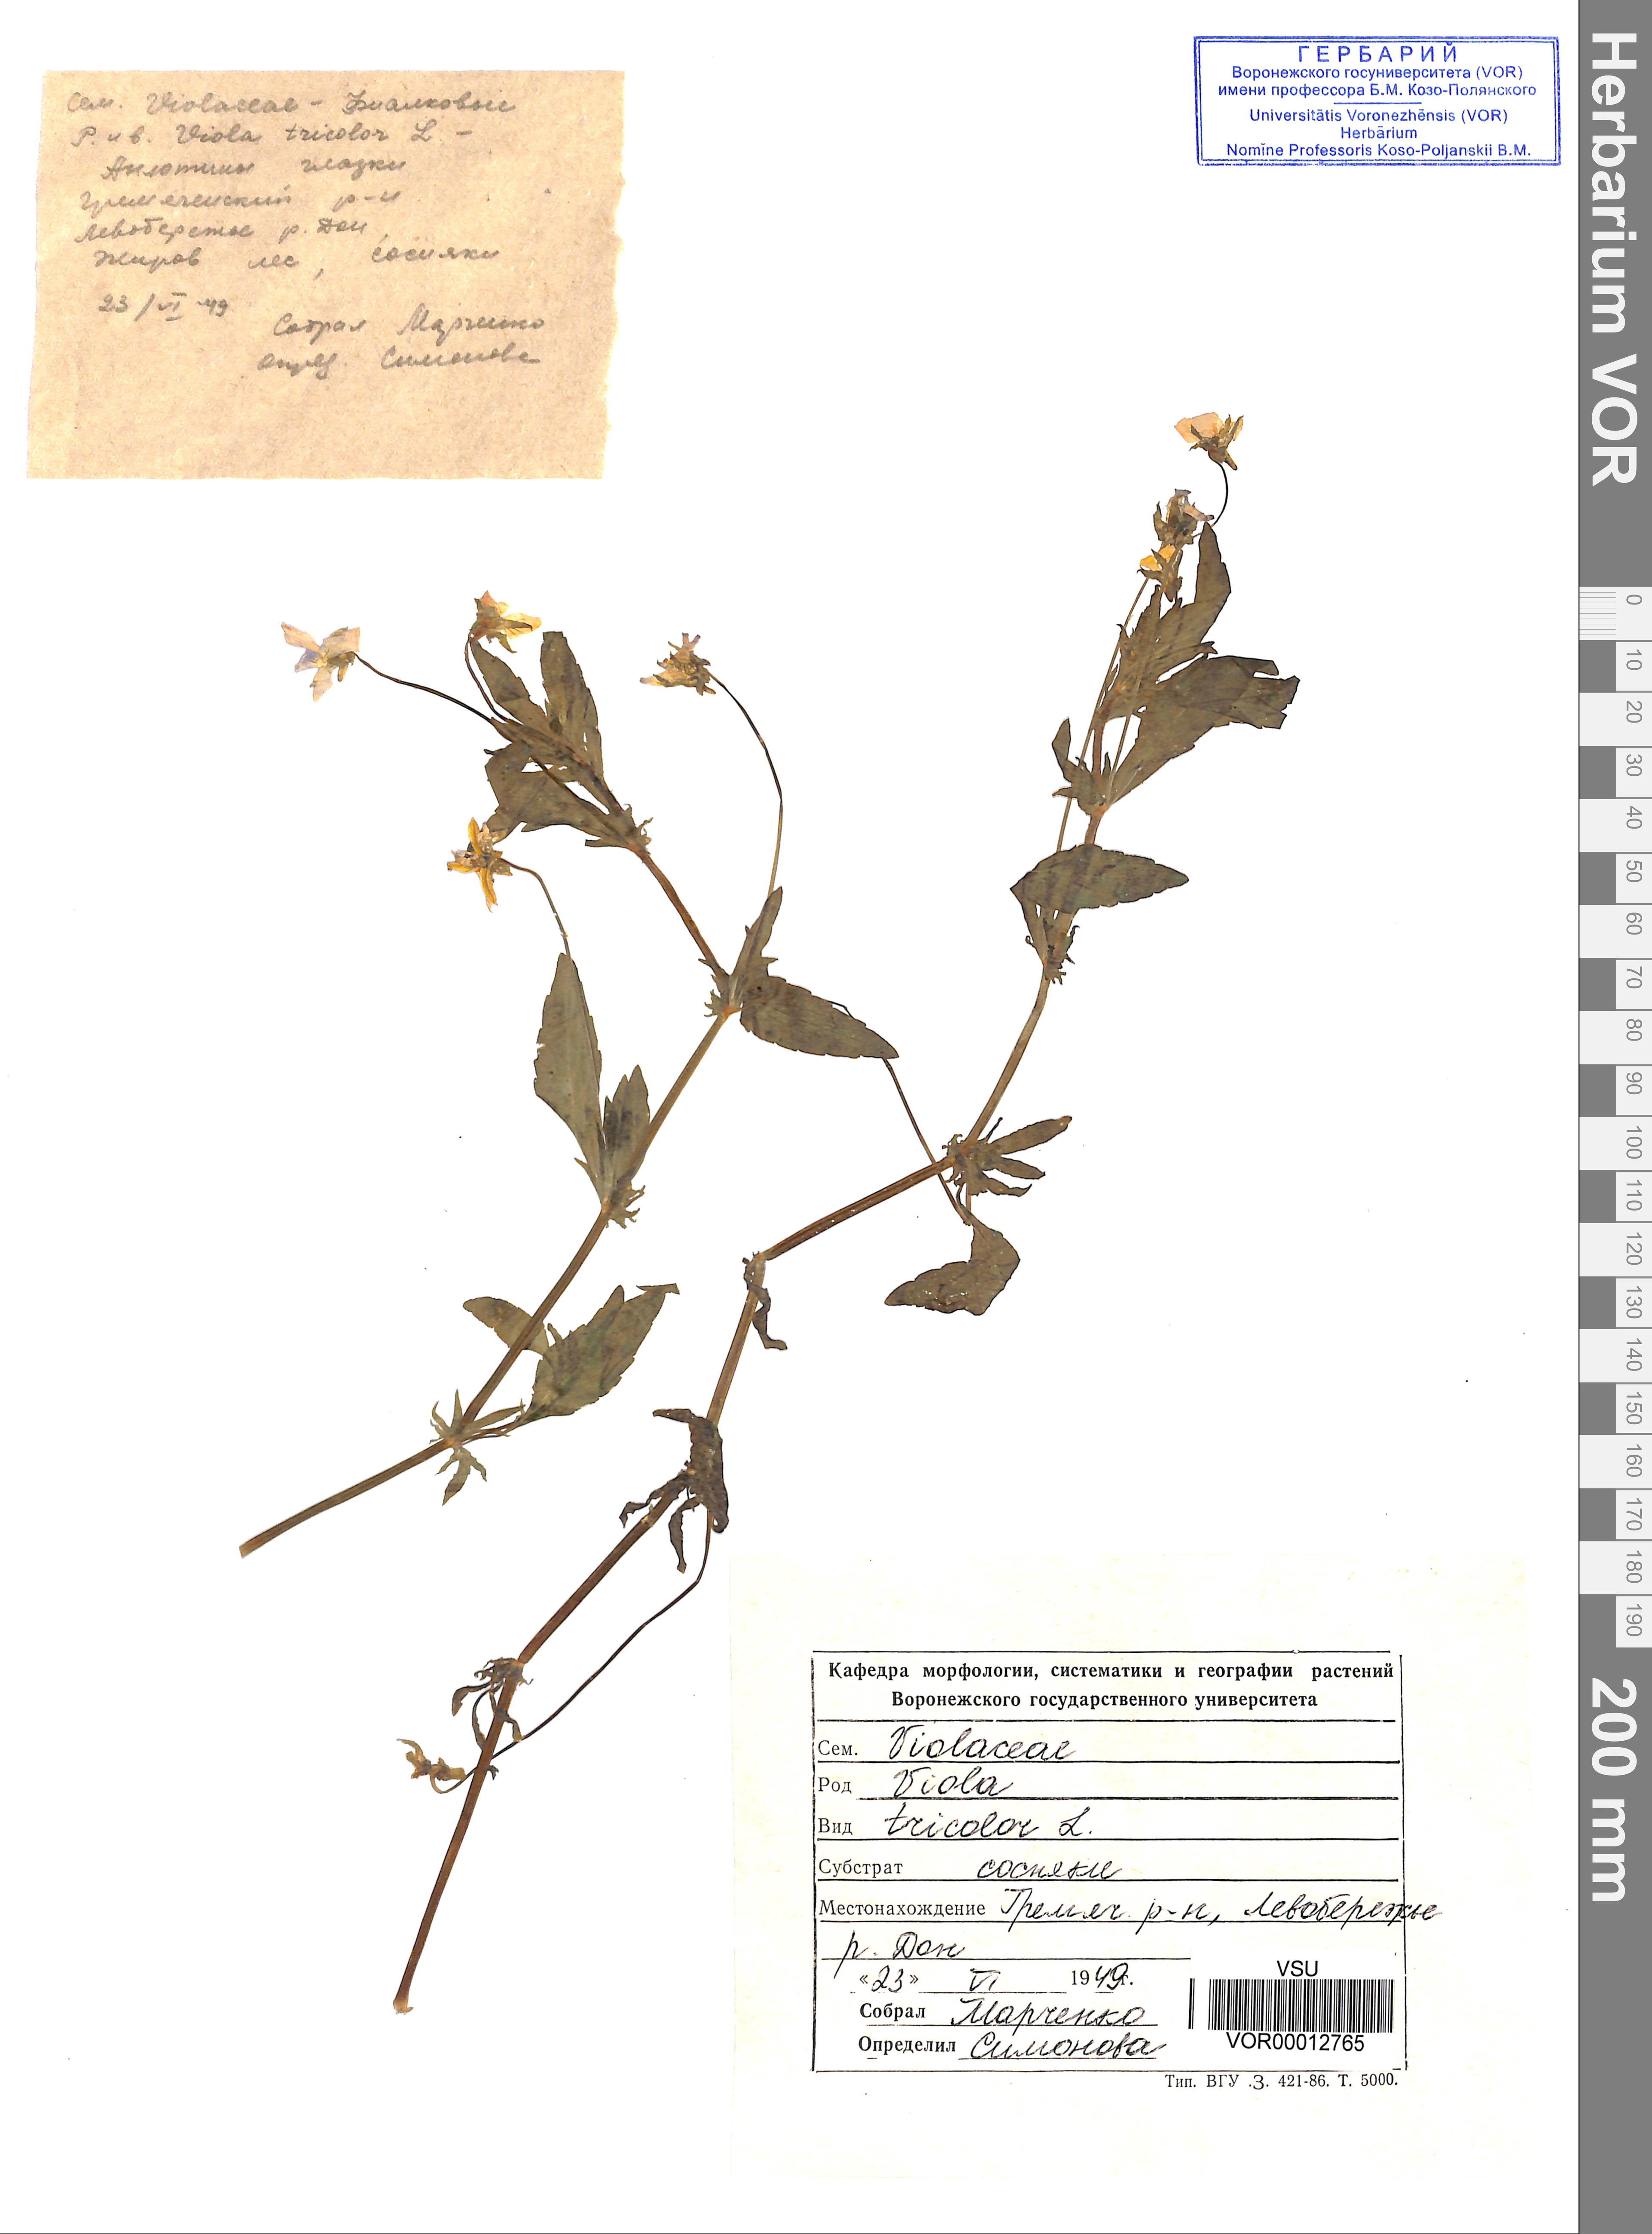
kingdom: Plantae
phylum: Tracheophyta
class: Magnoliopsida
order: Malpighiales
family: Violaceae
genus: Viola
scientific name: Viola tricolor
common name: Pansy
